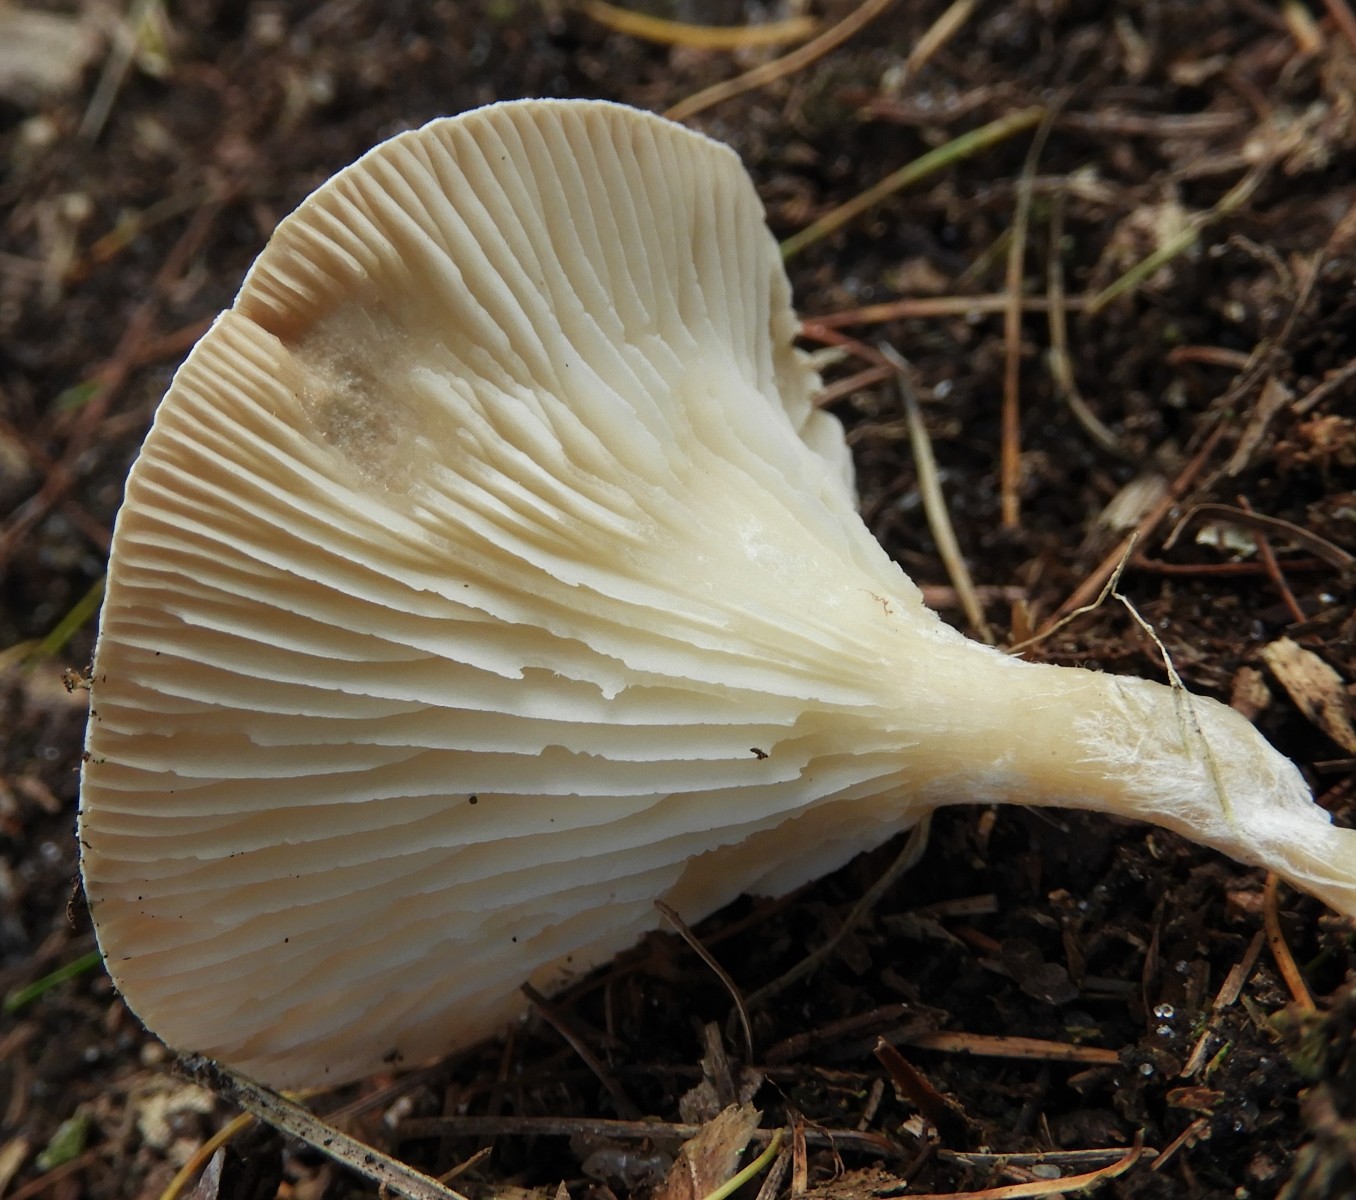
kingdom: Fungi
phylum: Basidiomycota
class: Agaricomycetes
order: Agaricales
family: Tricholomataceae
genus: Infundibulicybe
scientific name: Infundibulicybe
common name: tragthat
